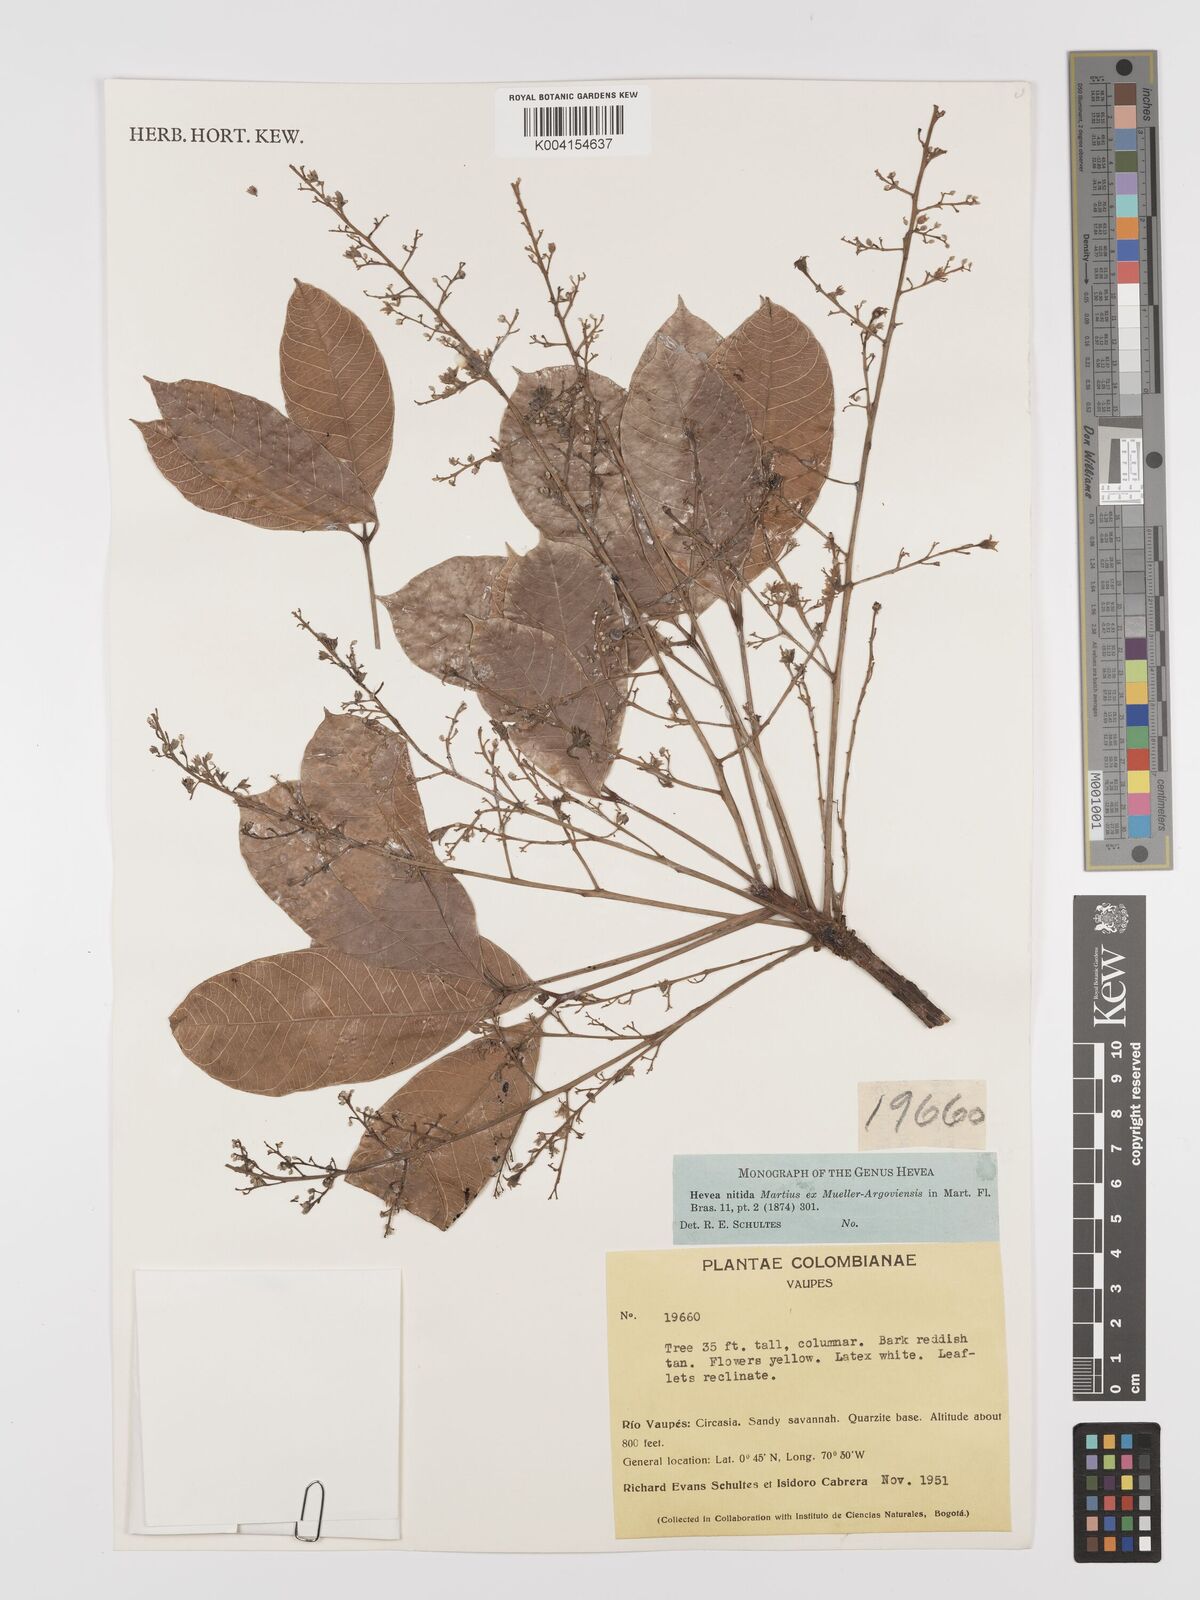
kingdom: Plantae
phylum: Tracheophyta
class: Magnoliopsida
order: Malpighiales
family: Euphorbiaceae
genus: Hevea
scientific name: Hevea nitida
